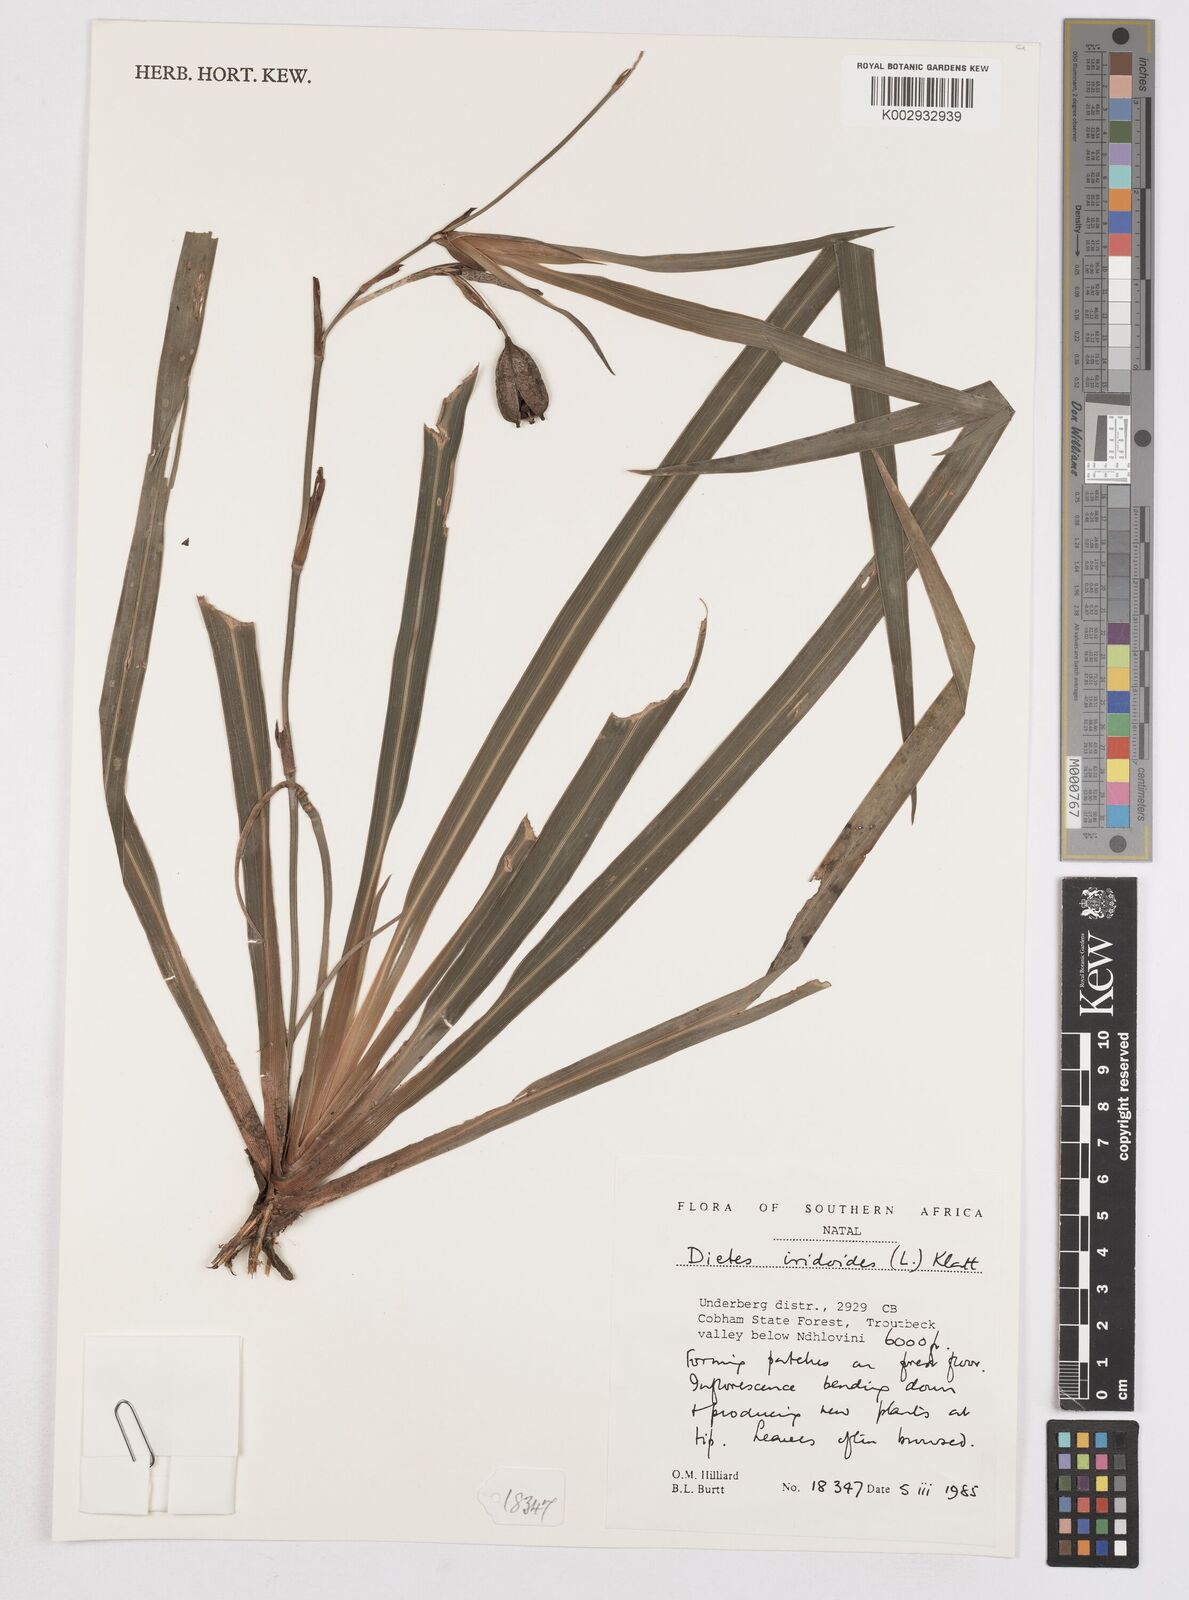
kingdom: Plantae
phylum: Tracheophyta
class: Liliopsida
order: Asparagales
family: Iridaceae
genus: Dietes
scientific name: Dietes iridioides
